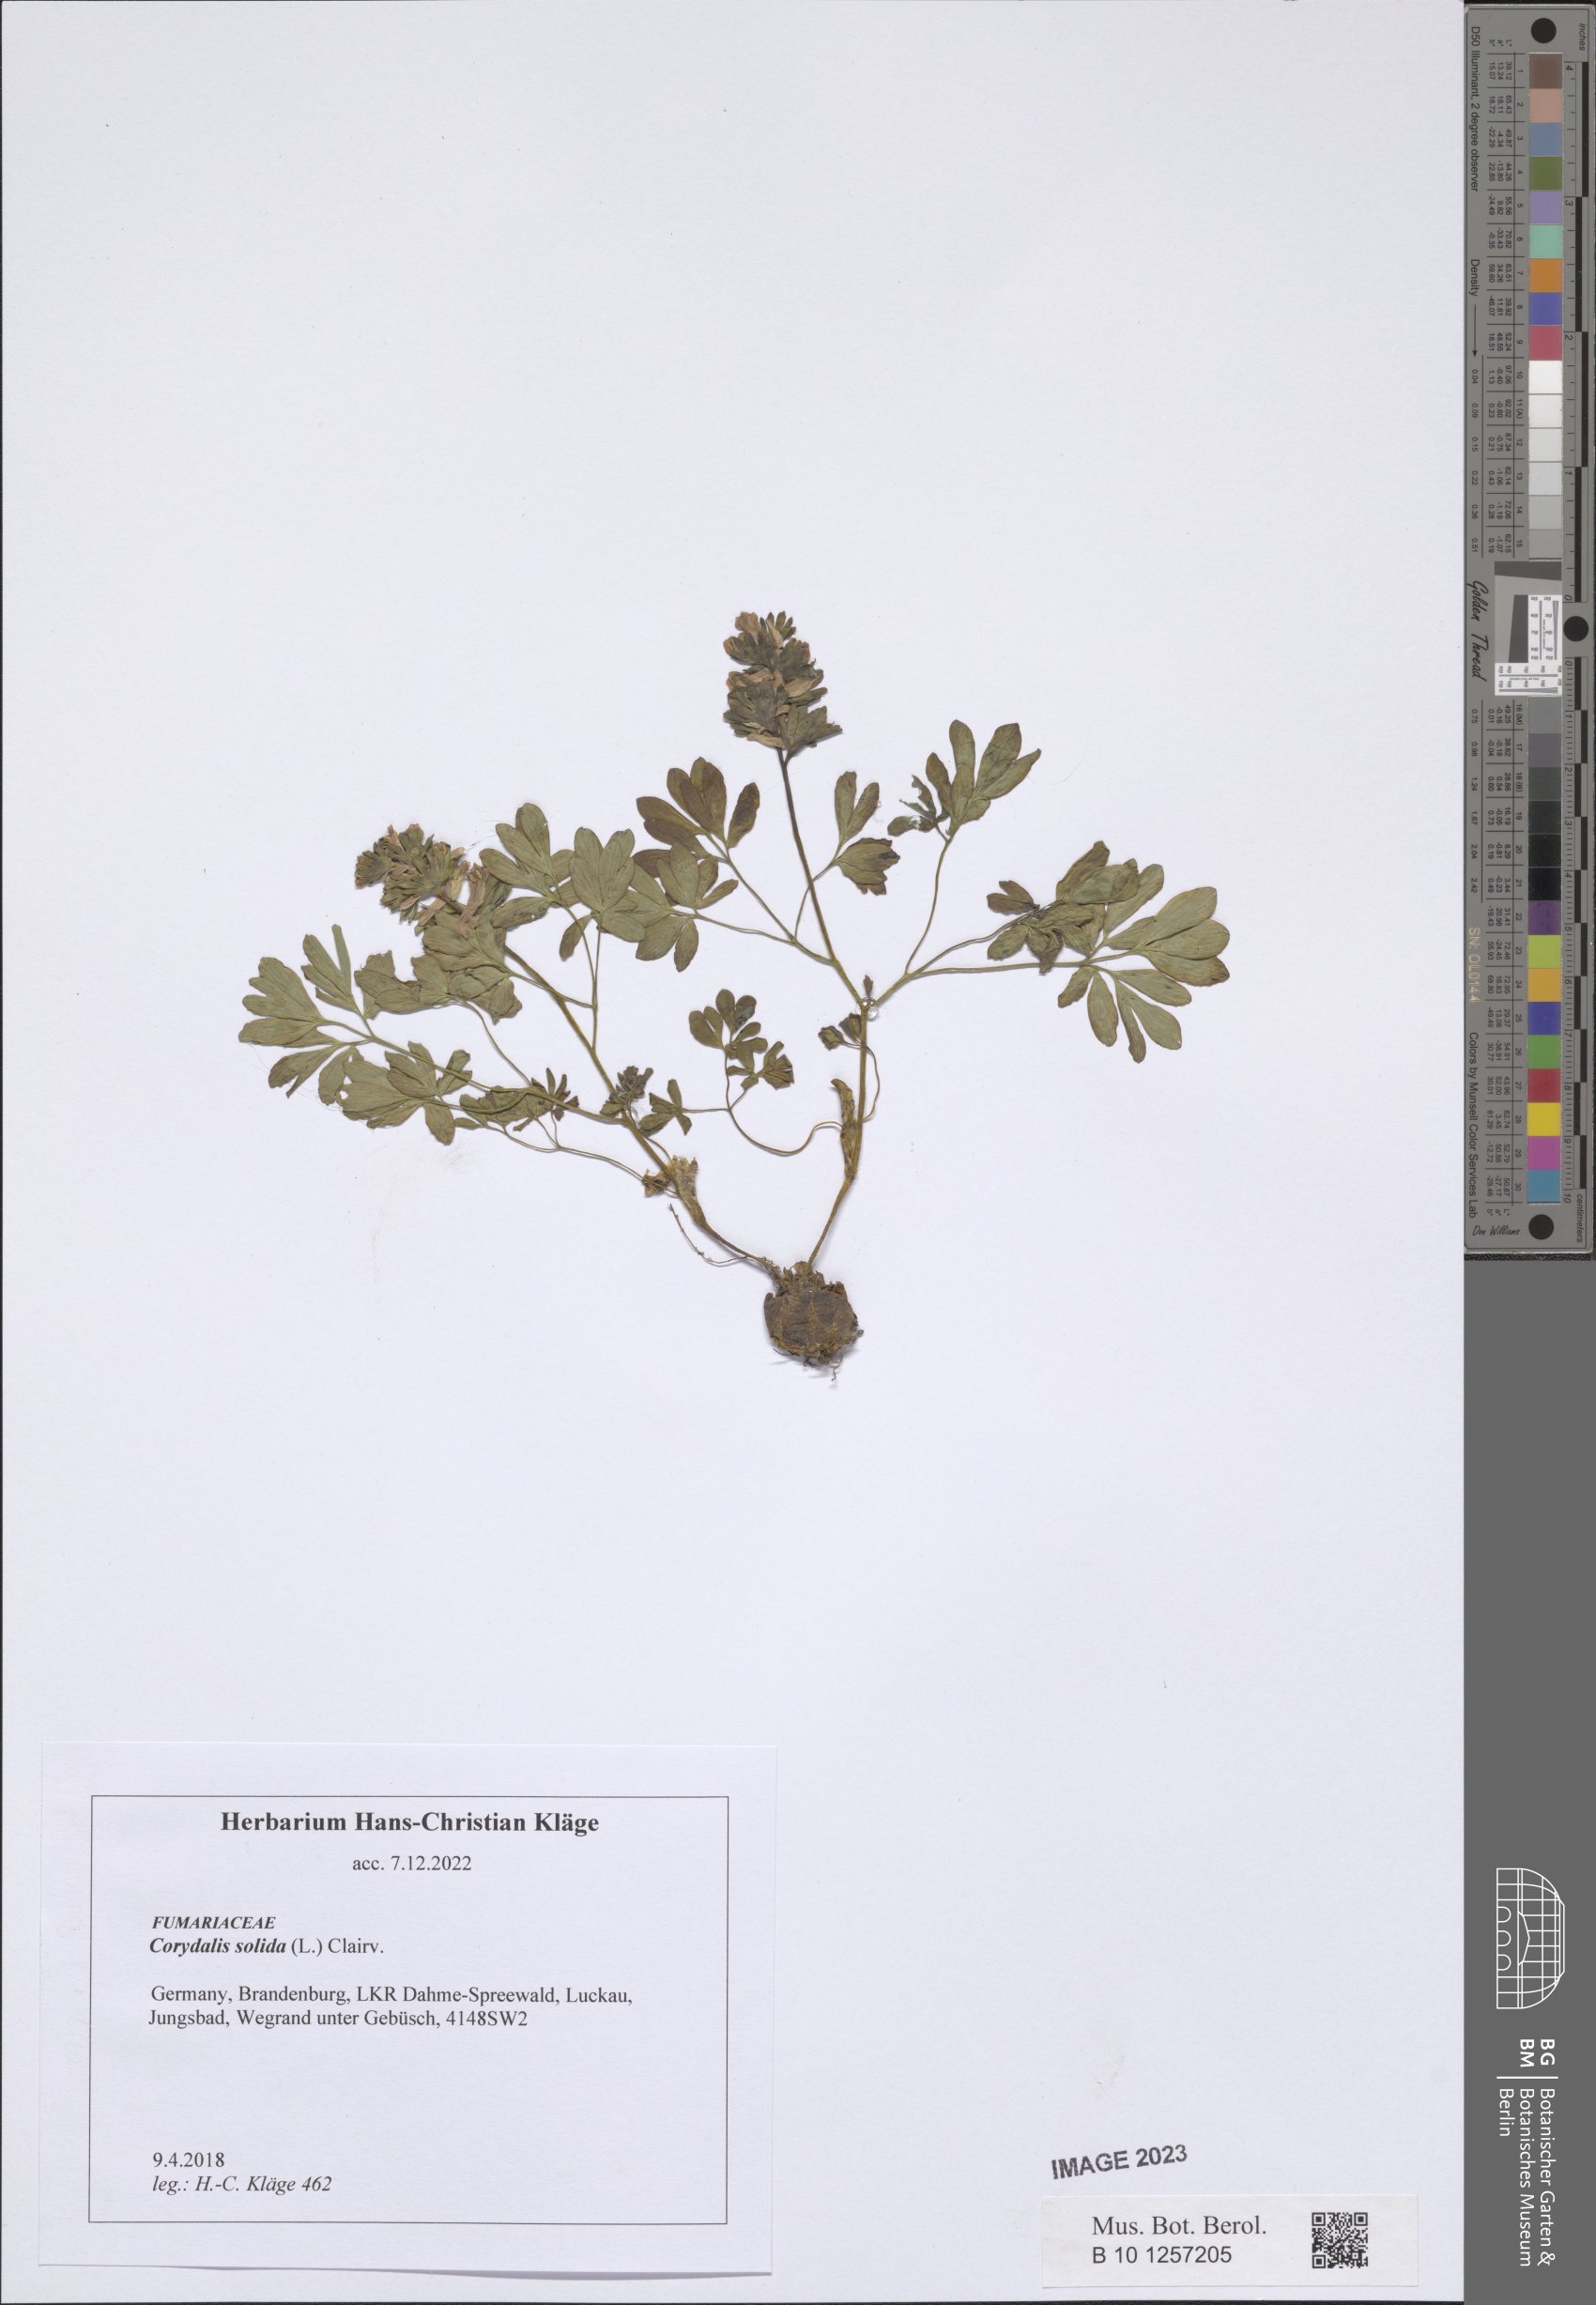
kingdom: Plantae
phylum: Tracheophyta
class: Magnoliopsida
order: Ranunculales
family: Papaveraceae
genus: Corydalis
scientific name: Corydalis solida
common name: Bird-in-a-bush
